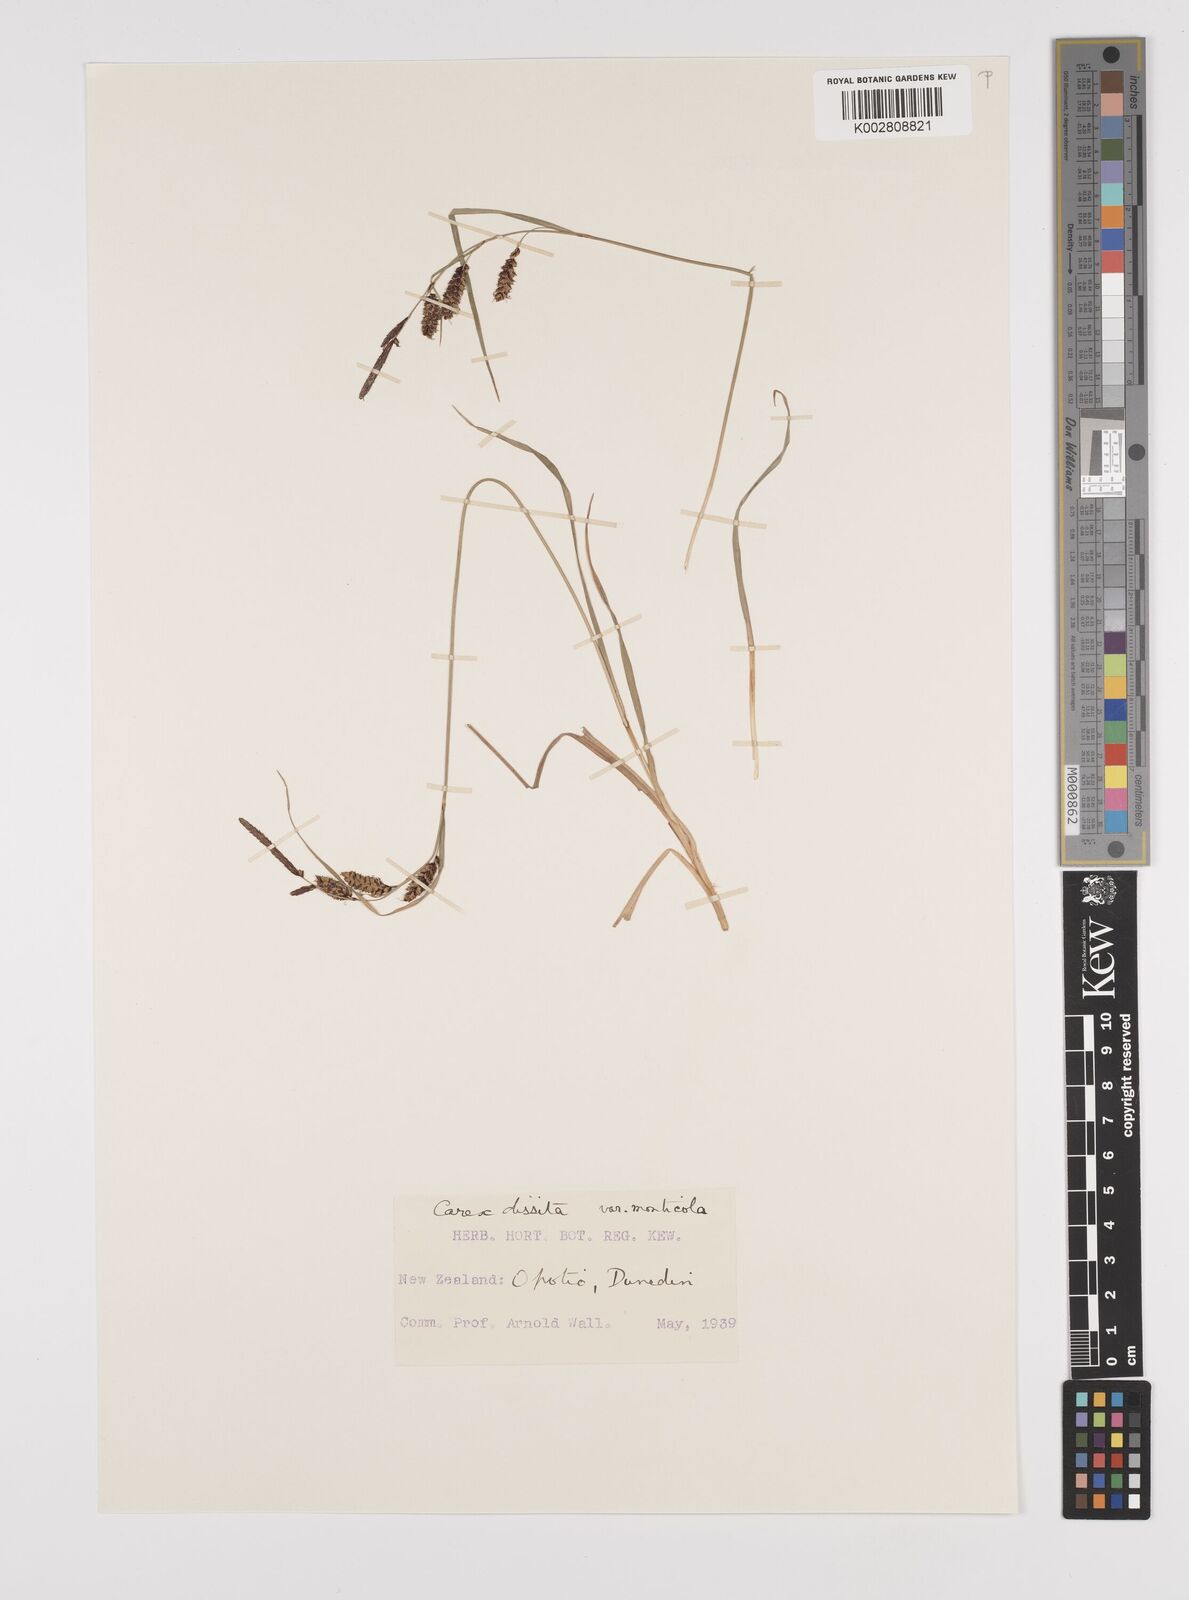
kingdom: Plantae
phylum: Tracheophyta
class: Liliopsida
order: Poales
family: Cyperaceae
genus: Carex
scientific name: Carex dissita
